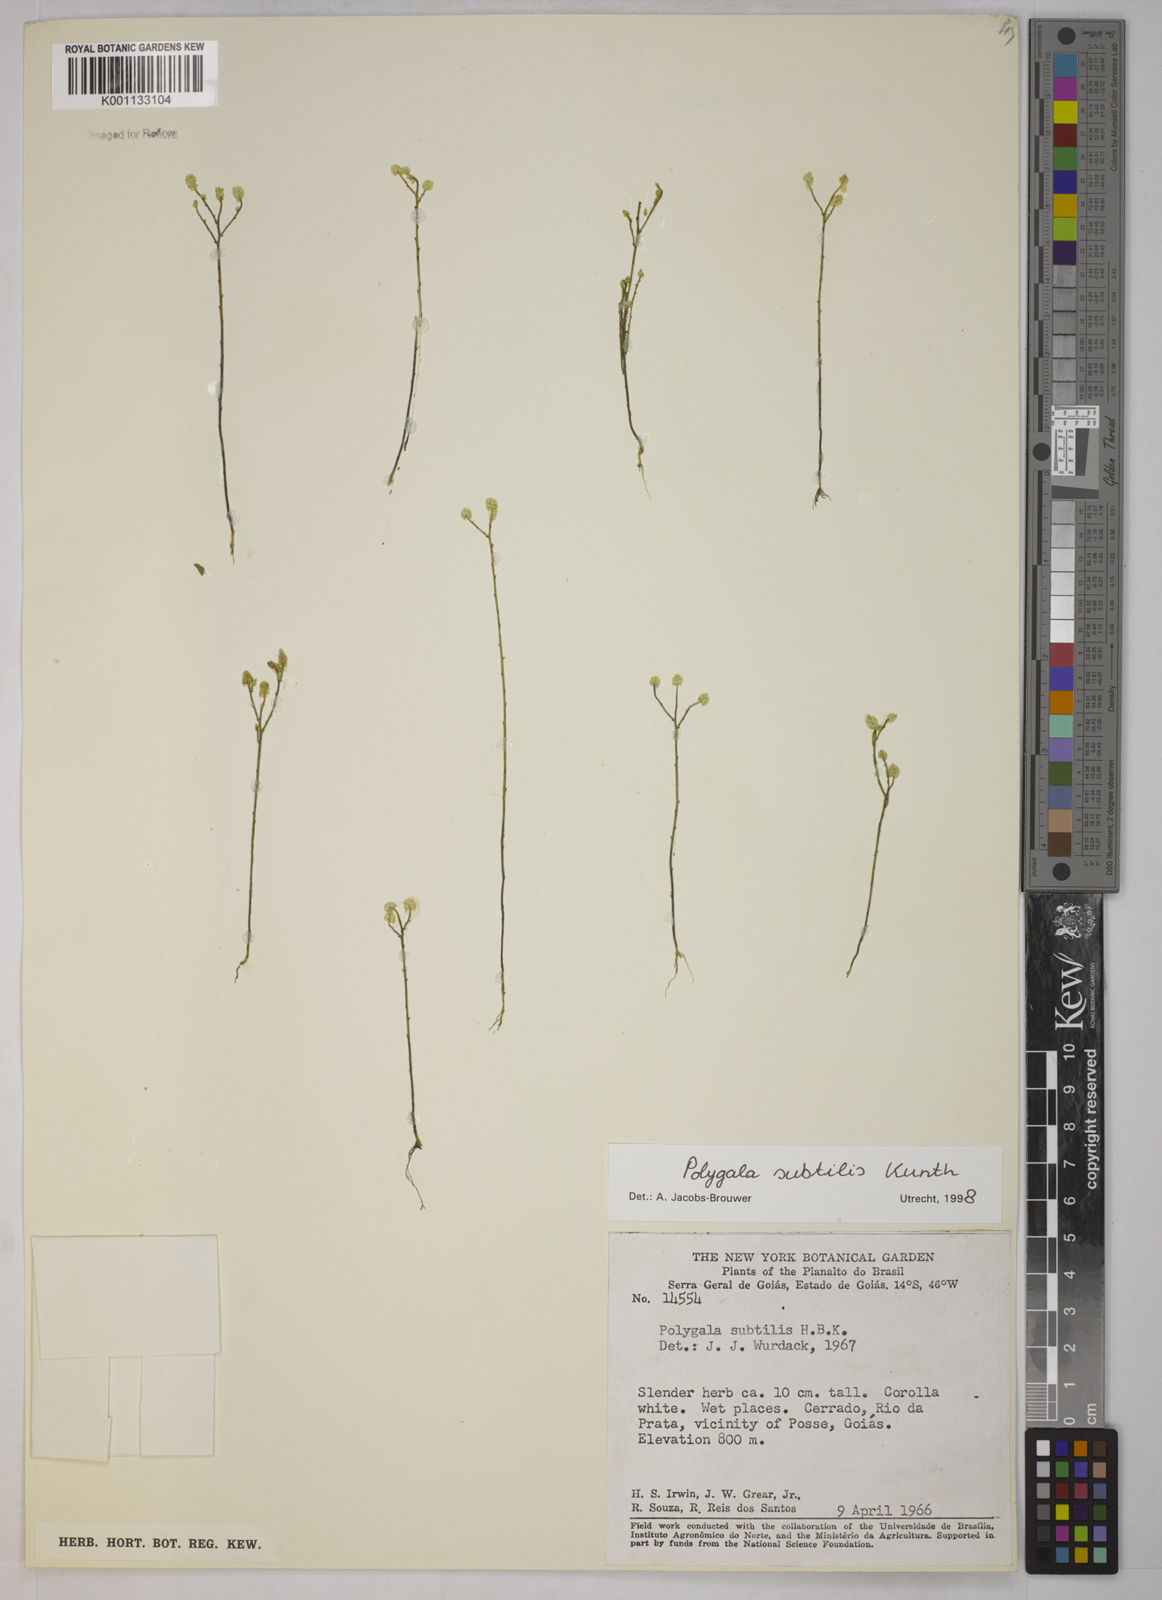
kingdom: Plantae
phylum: Tracheophyta
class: Magnoliopsida
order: Fabales
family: Polygalaceae
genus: Polygala
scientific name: Polygala subtilis
